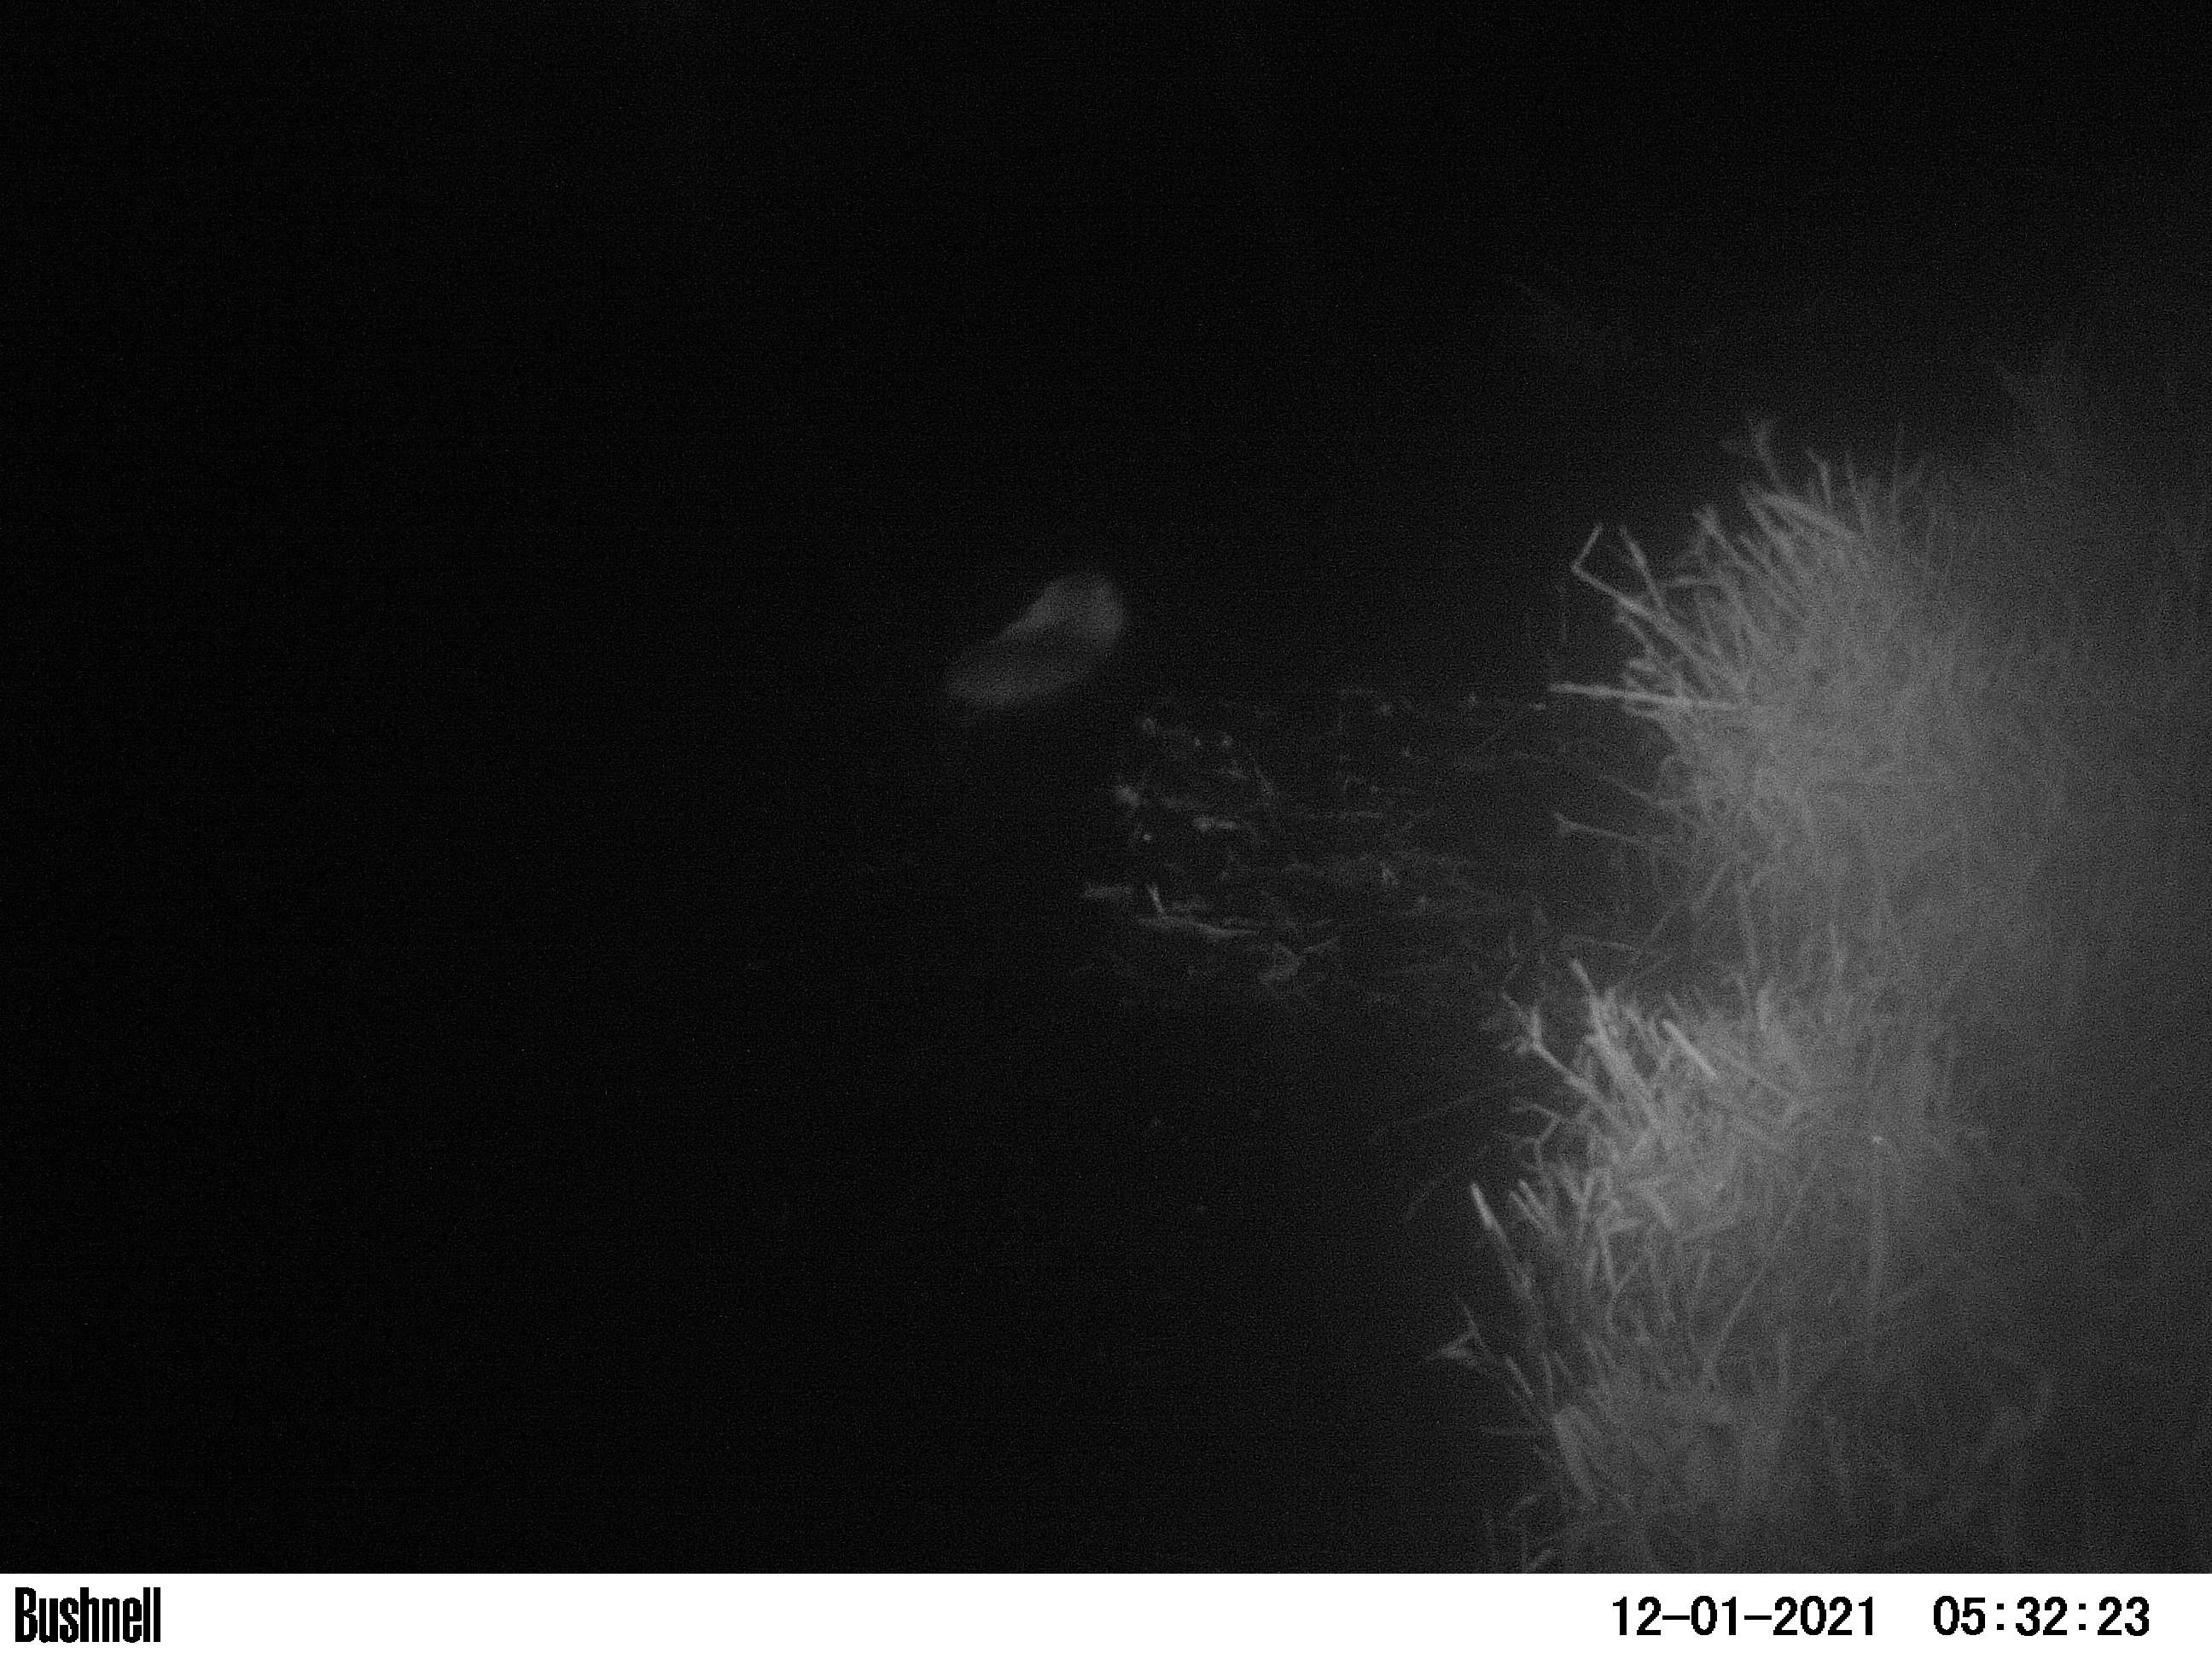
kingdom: Animalia
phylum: Chordata
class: Mammalia
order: Rodentia
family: Cricetidae
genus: Ondatra
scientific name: Ondatra zibethicus
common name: Muskrat
